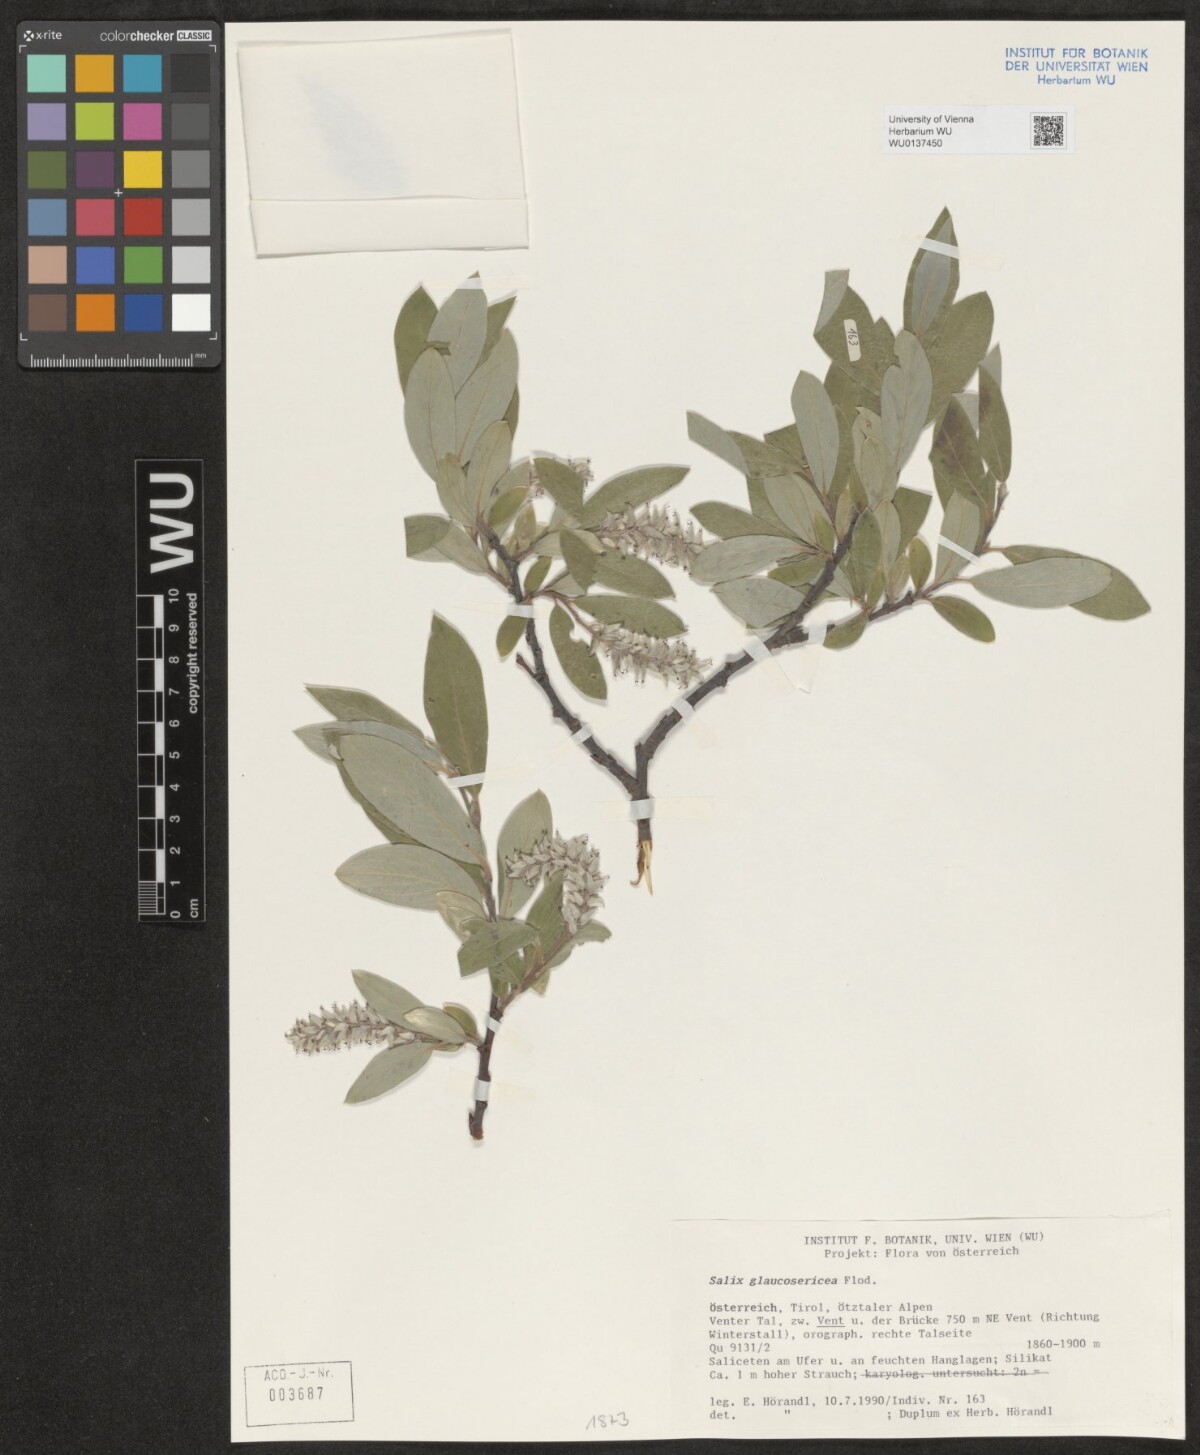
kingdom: Plantae
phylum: Tracheophyta
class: Magnoliopsida
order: Malpighiales
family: Salicaceae
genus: Salix
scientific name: Salix glaucosericea
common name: Alpine gray willow
